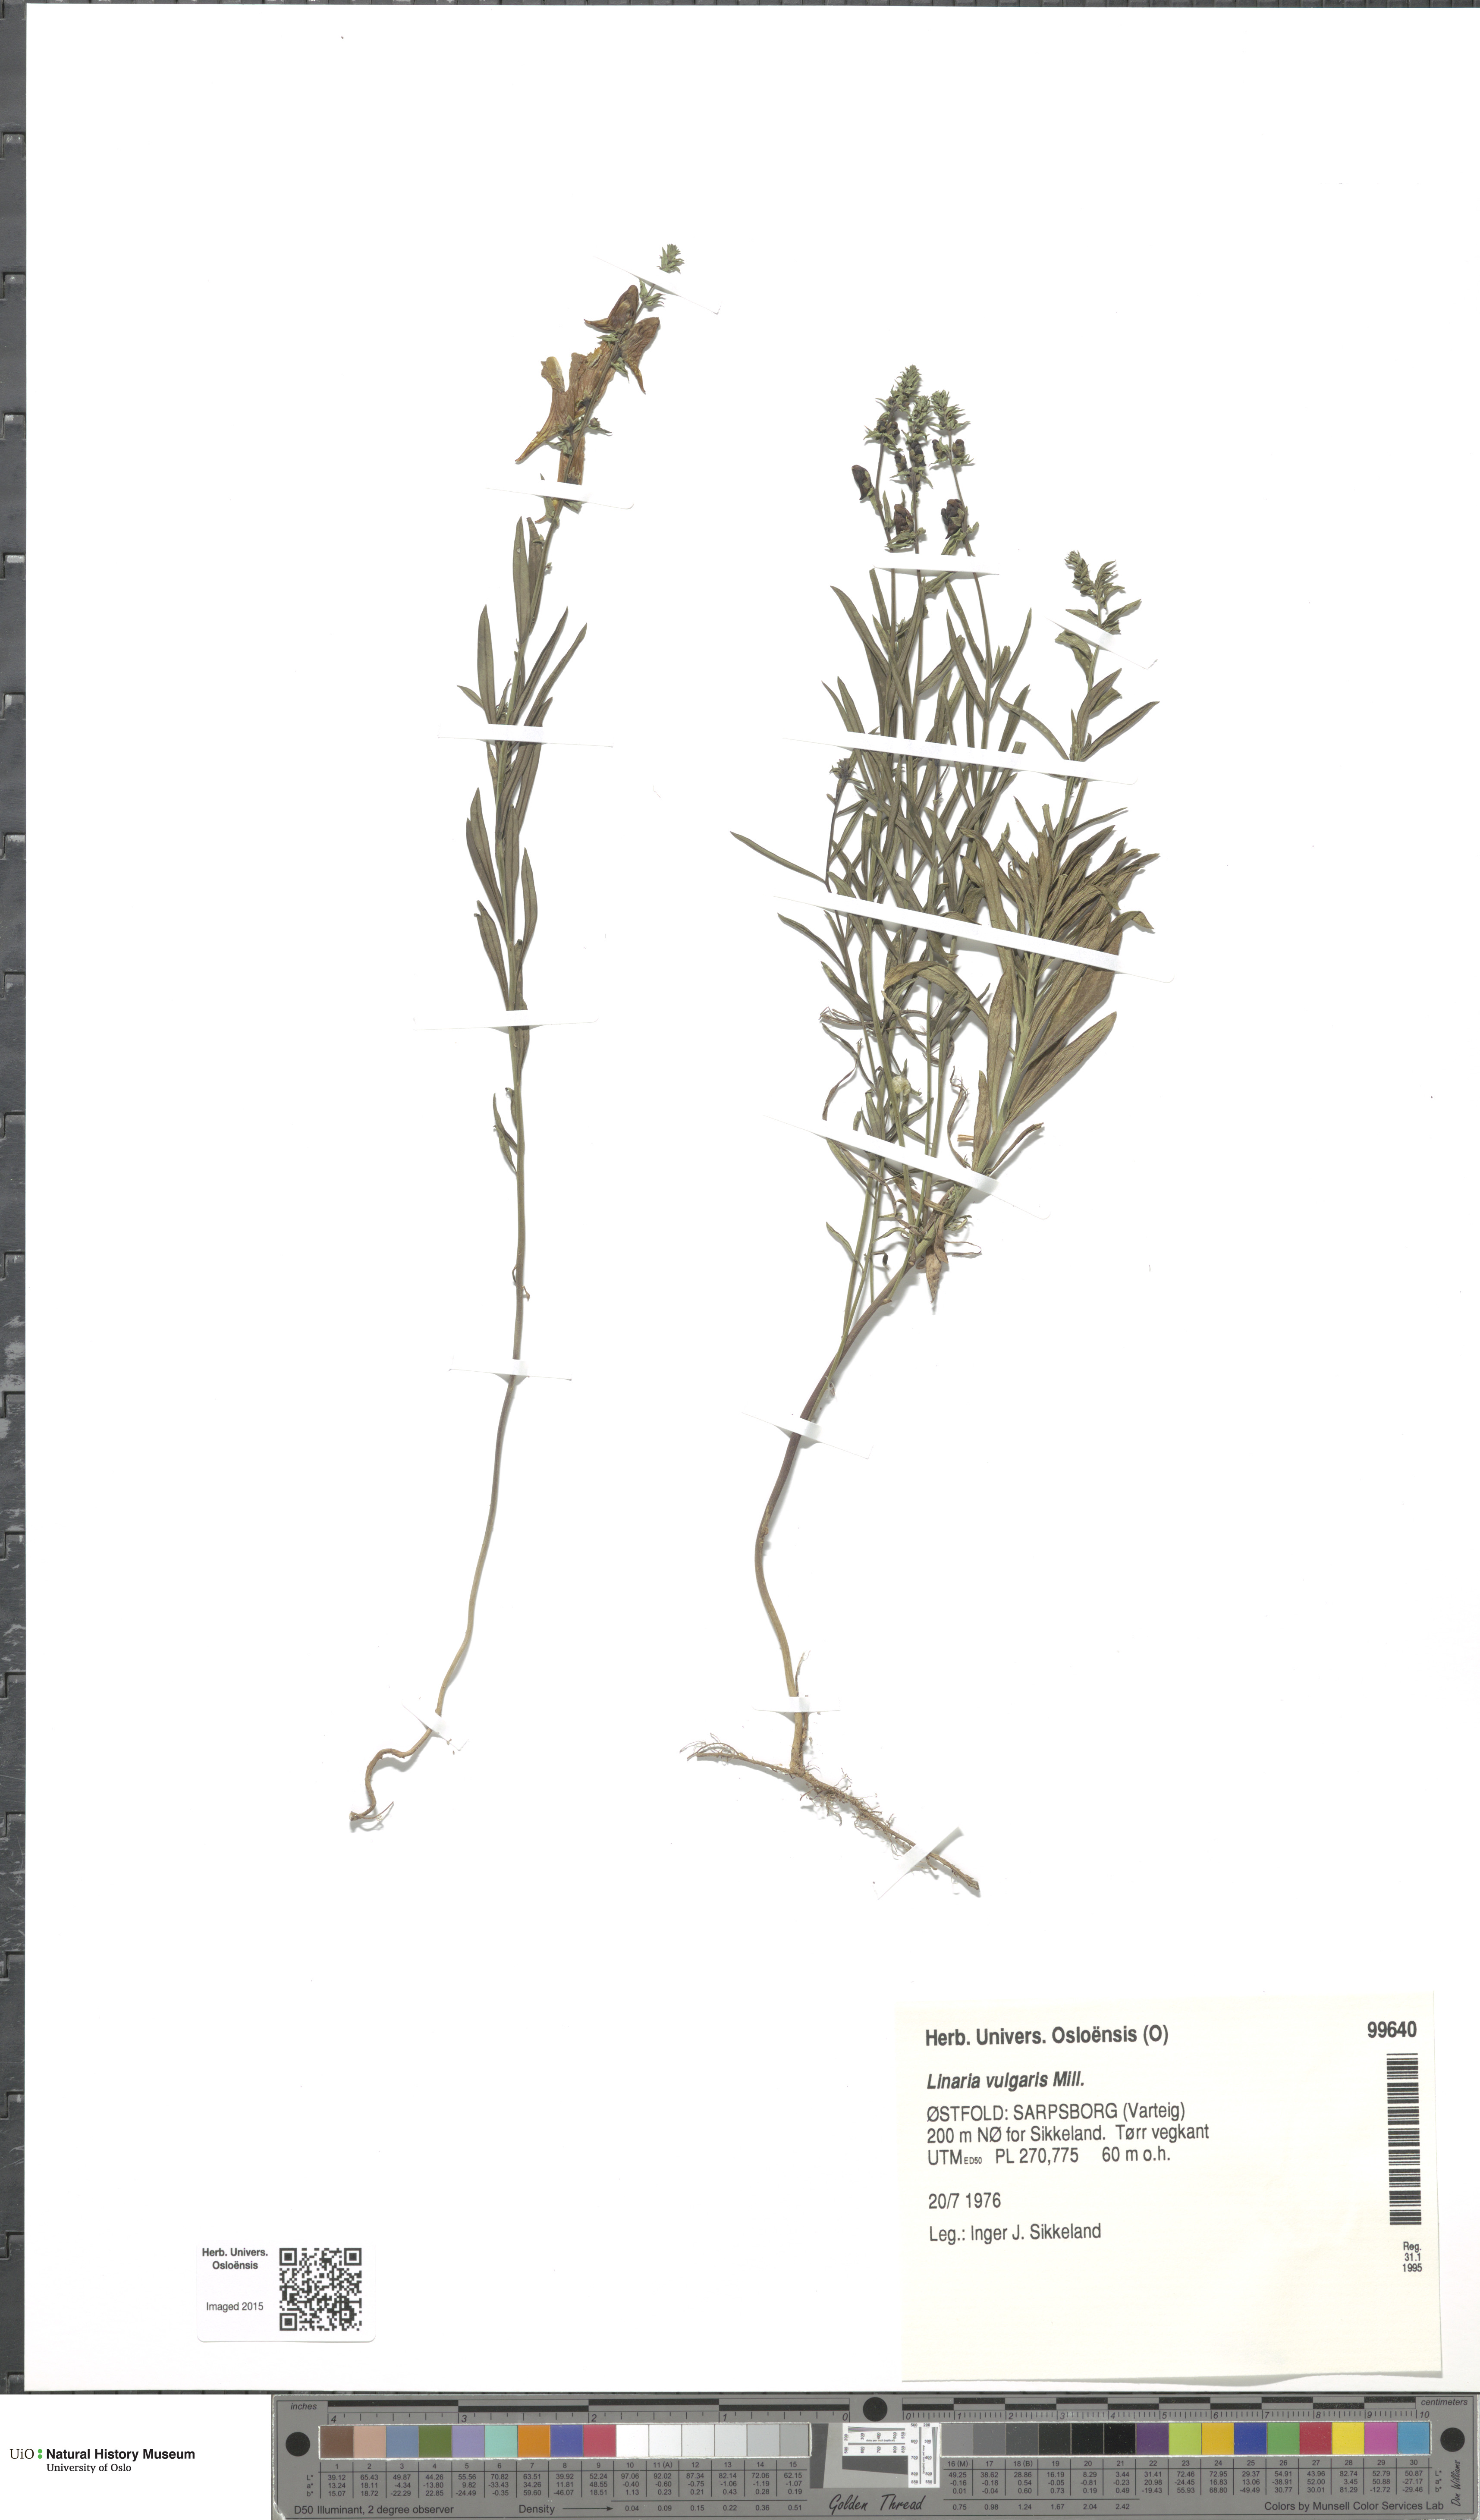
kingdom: Plantae
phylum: Tracheophyta
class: Magnoliopsida
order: Lamiales
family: Plantaginaceae
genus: Linaria
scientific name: Linaria vulgaris
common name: Butter and eggs
